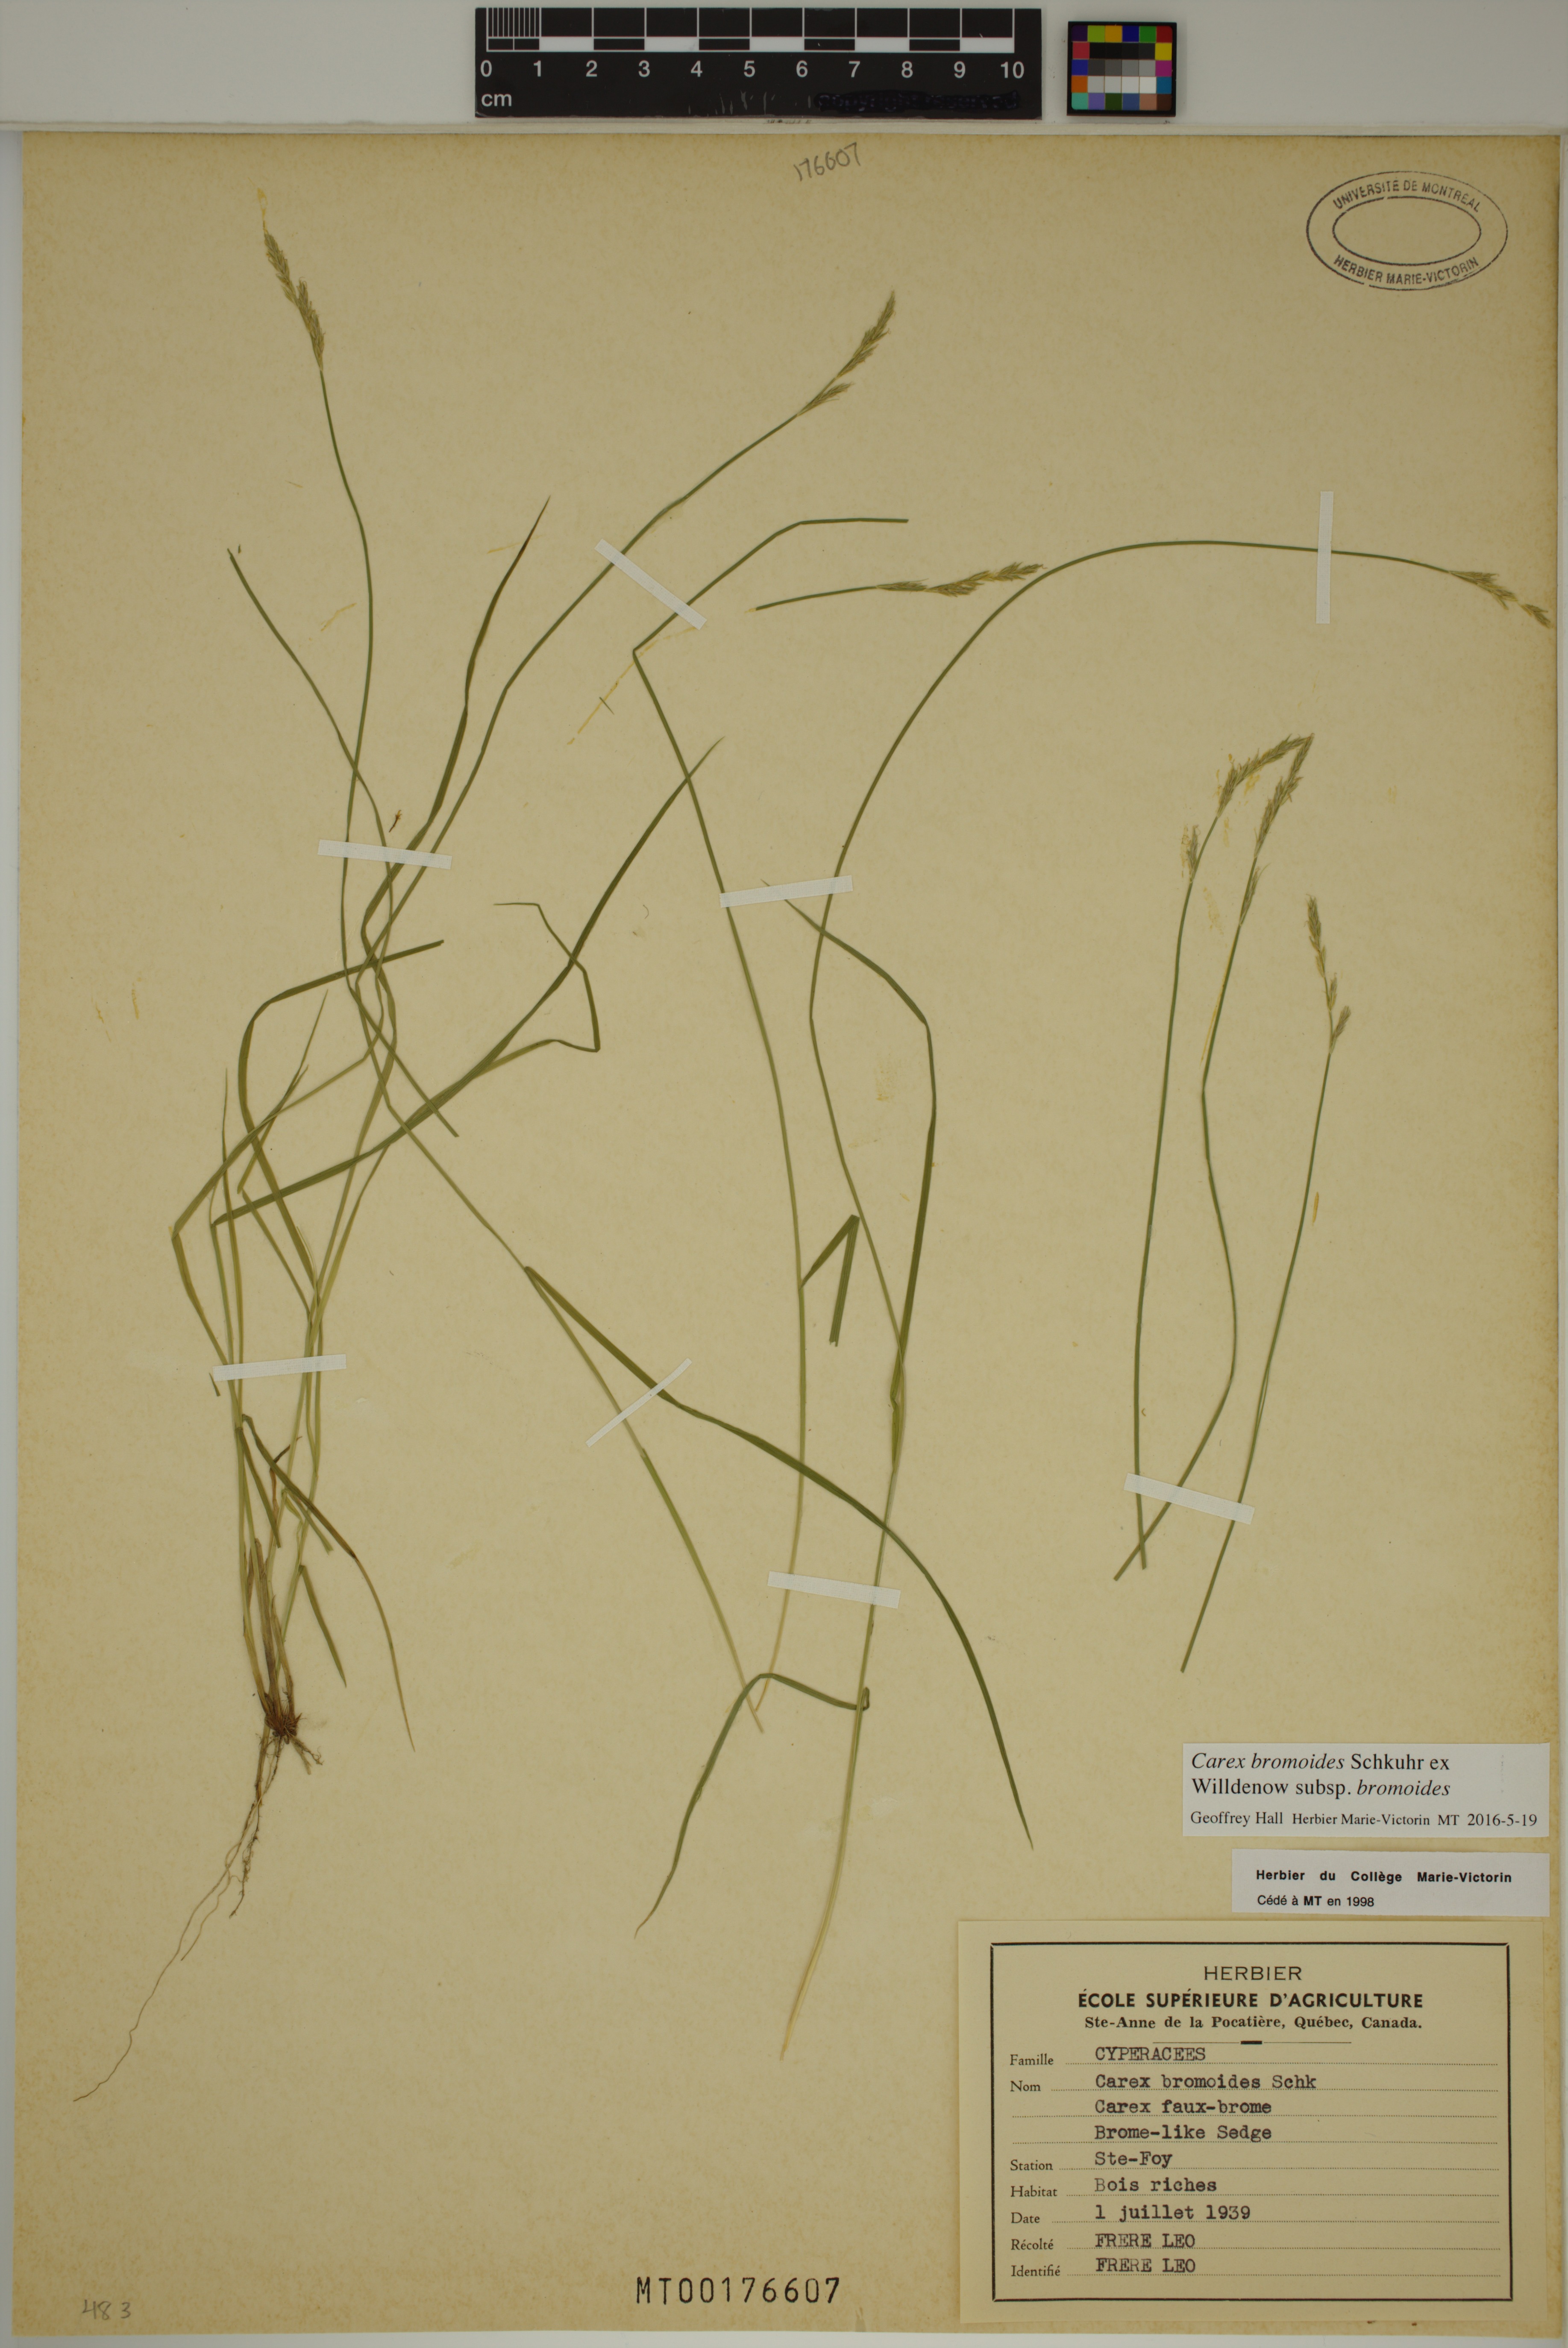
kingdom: Plantae
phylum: Tracheophyta
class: Liliopsida
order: Poales
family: Cyperaceae
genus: Carex
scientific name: Carex bromoides
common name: Brome hummock sedge
